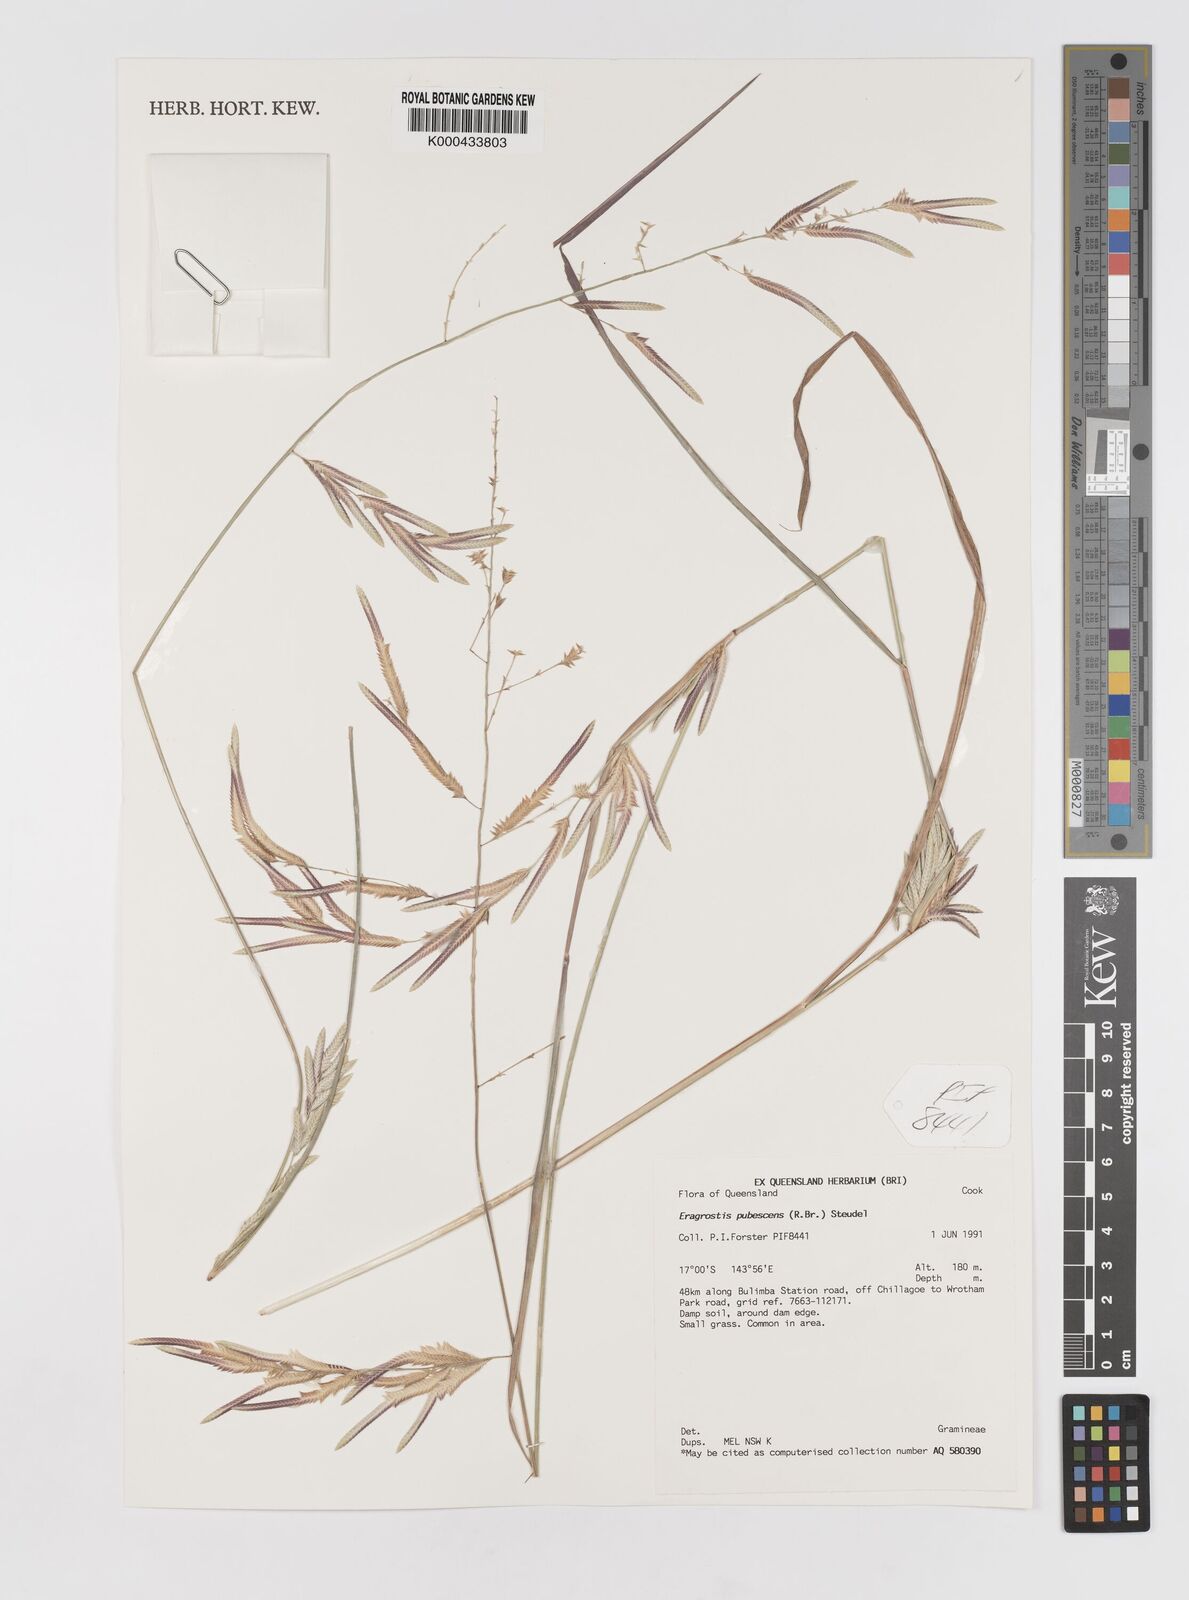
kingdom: Plantae
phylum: Tracheophyta
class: Liliopsida
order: Poales
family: Poaceae
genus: Eragrostis
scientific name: Eragrostis pubescens
